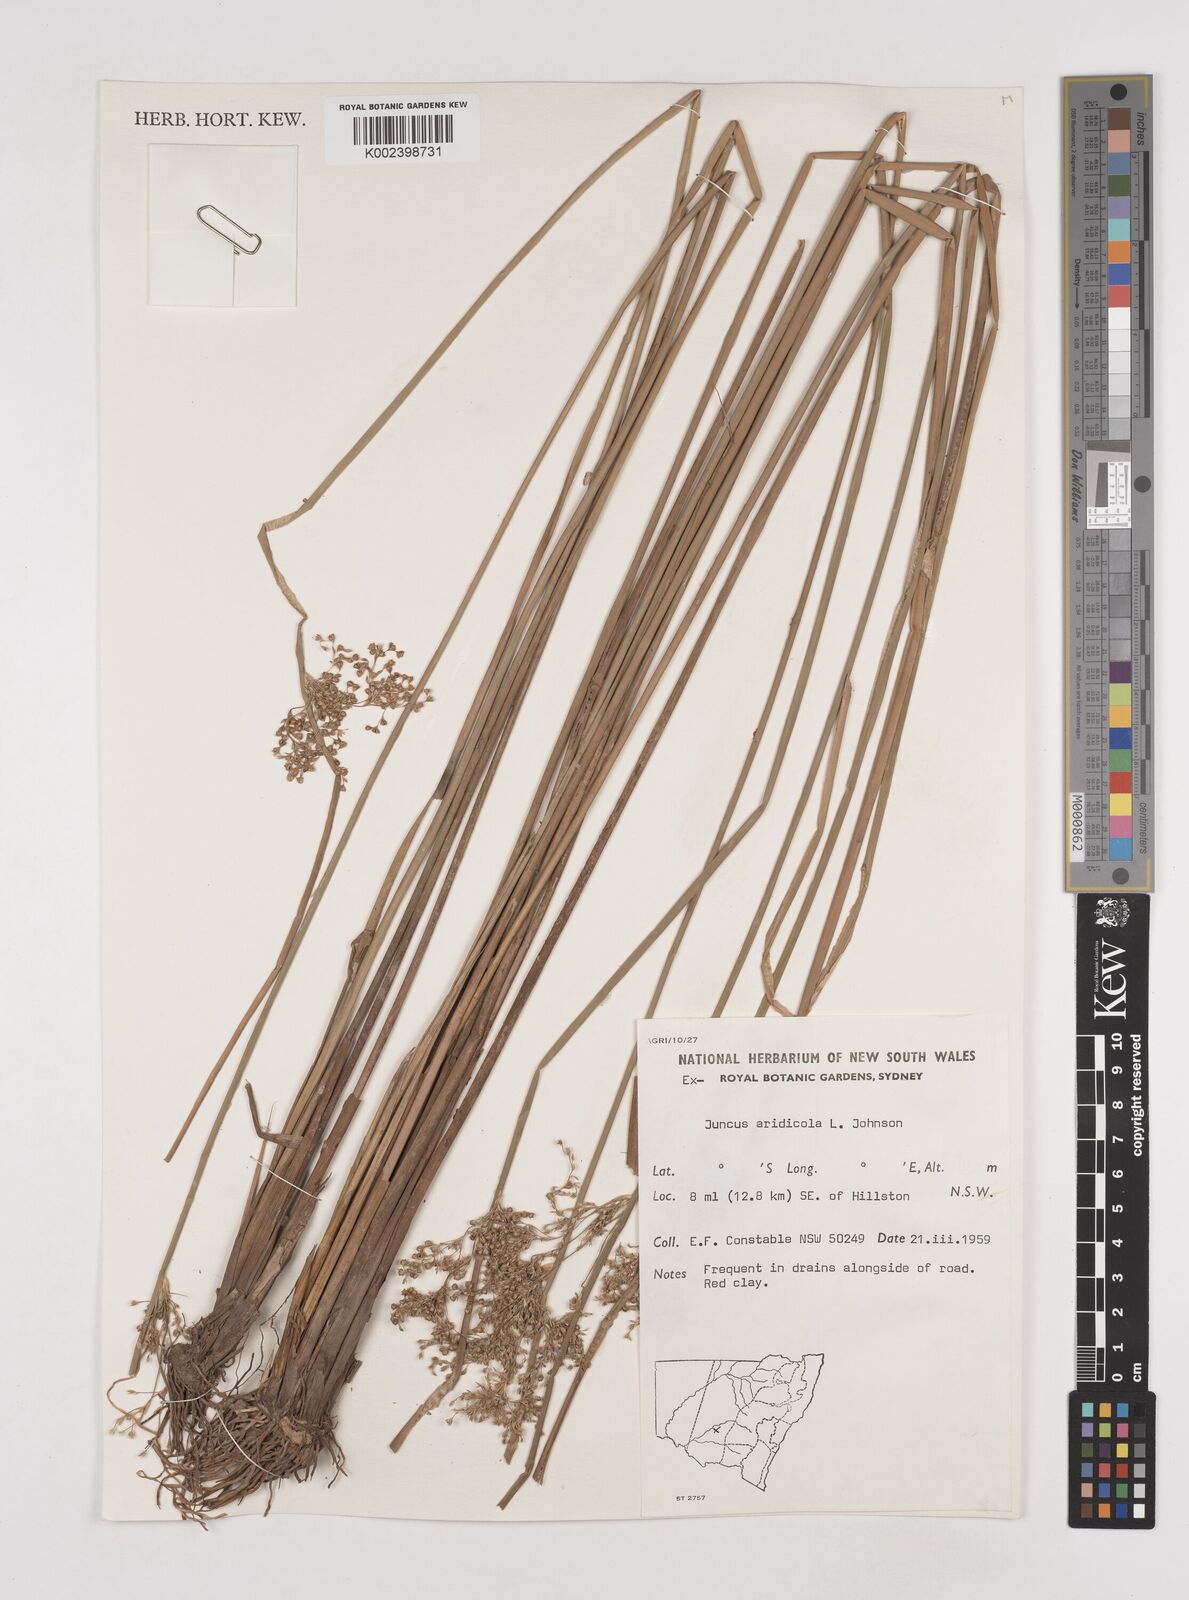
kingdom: Plantae
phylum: Tracheophyta
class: Liliopsida
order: Poales
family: Juncaceae
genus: Juncus
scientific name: Juncus aridicola
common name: Tussock rush
